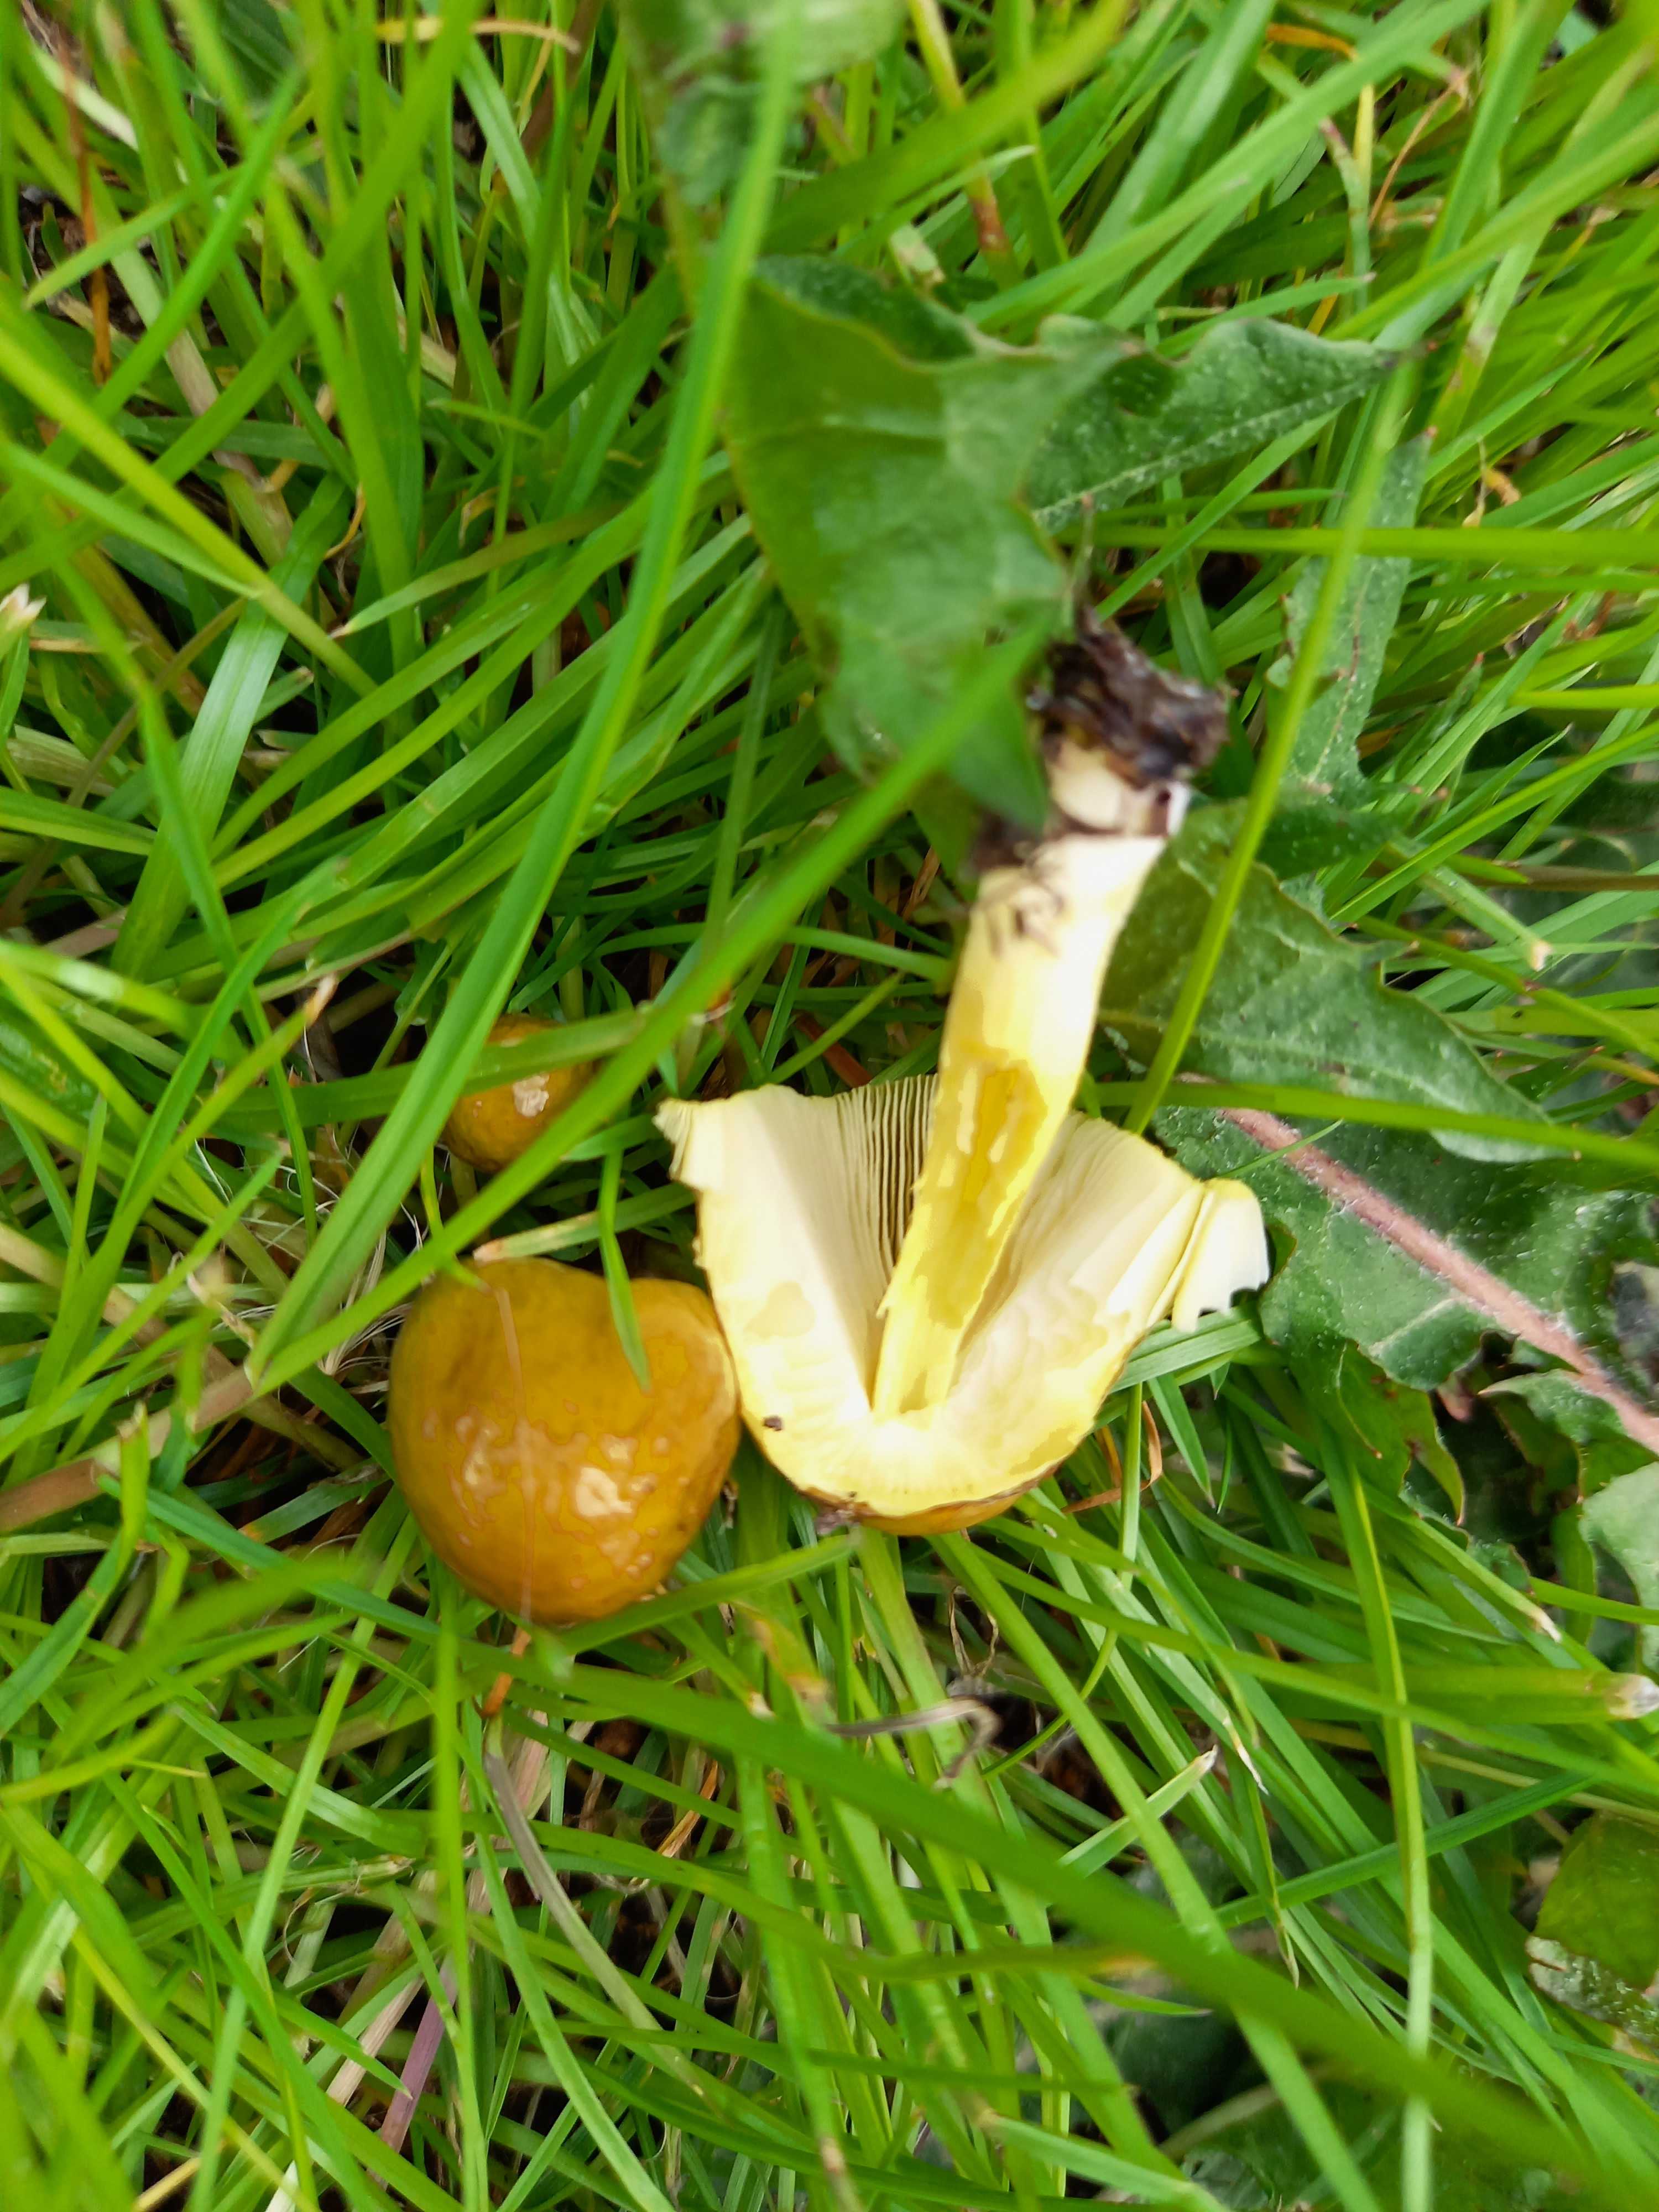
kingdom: Fungi
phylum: Basidiomycota
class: Agaricomycetes
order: Agaricales
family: Bolbitiaceae
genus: Bolbitius
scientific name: Bolbitius
